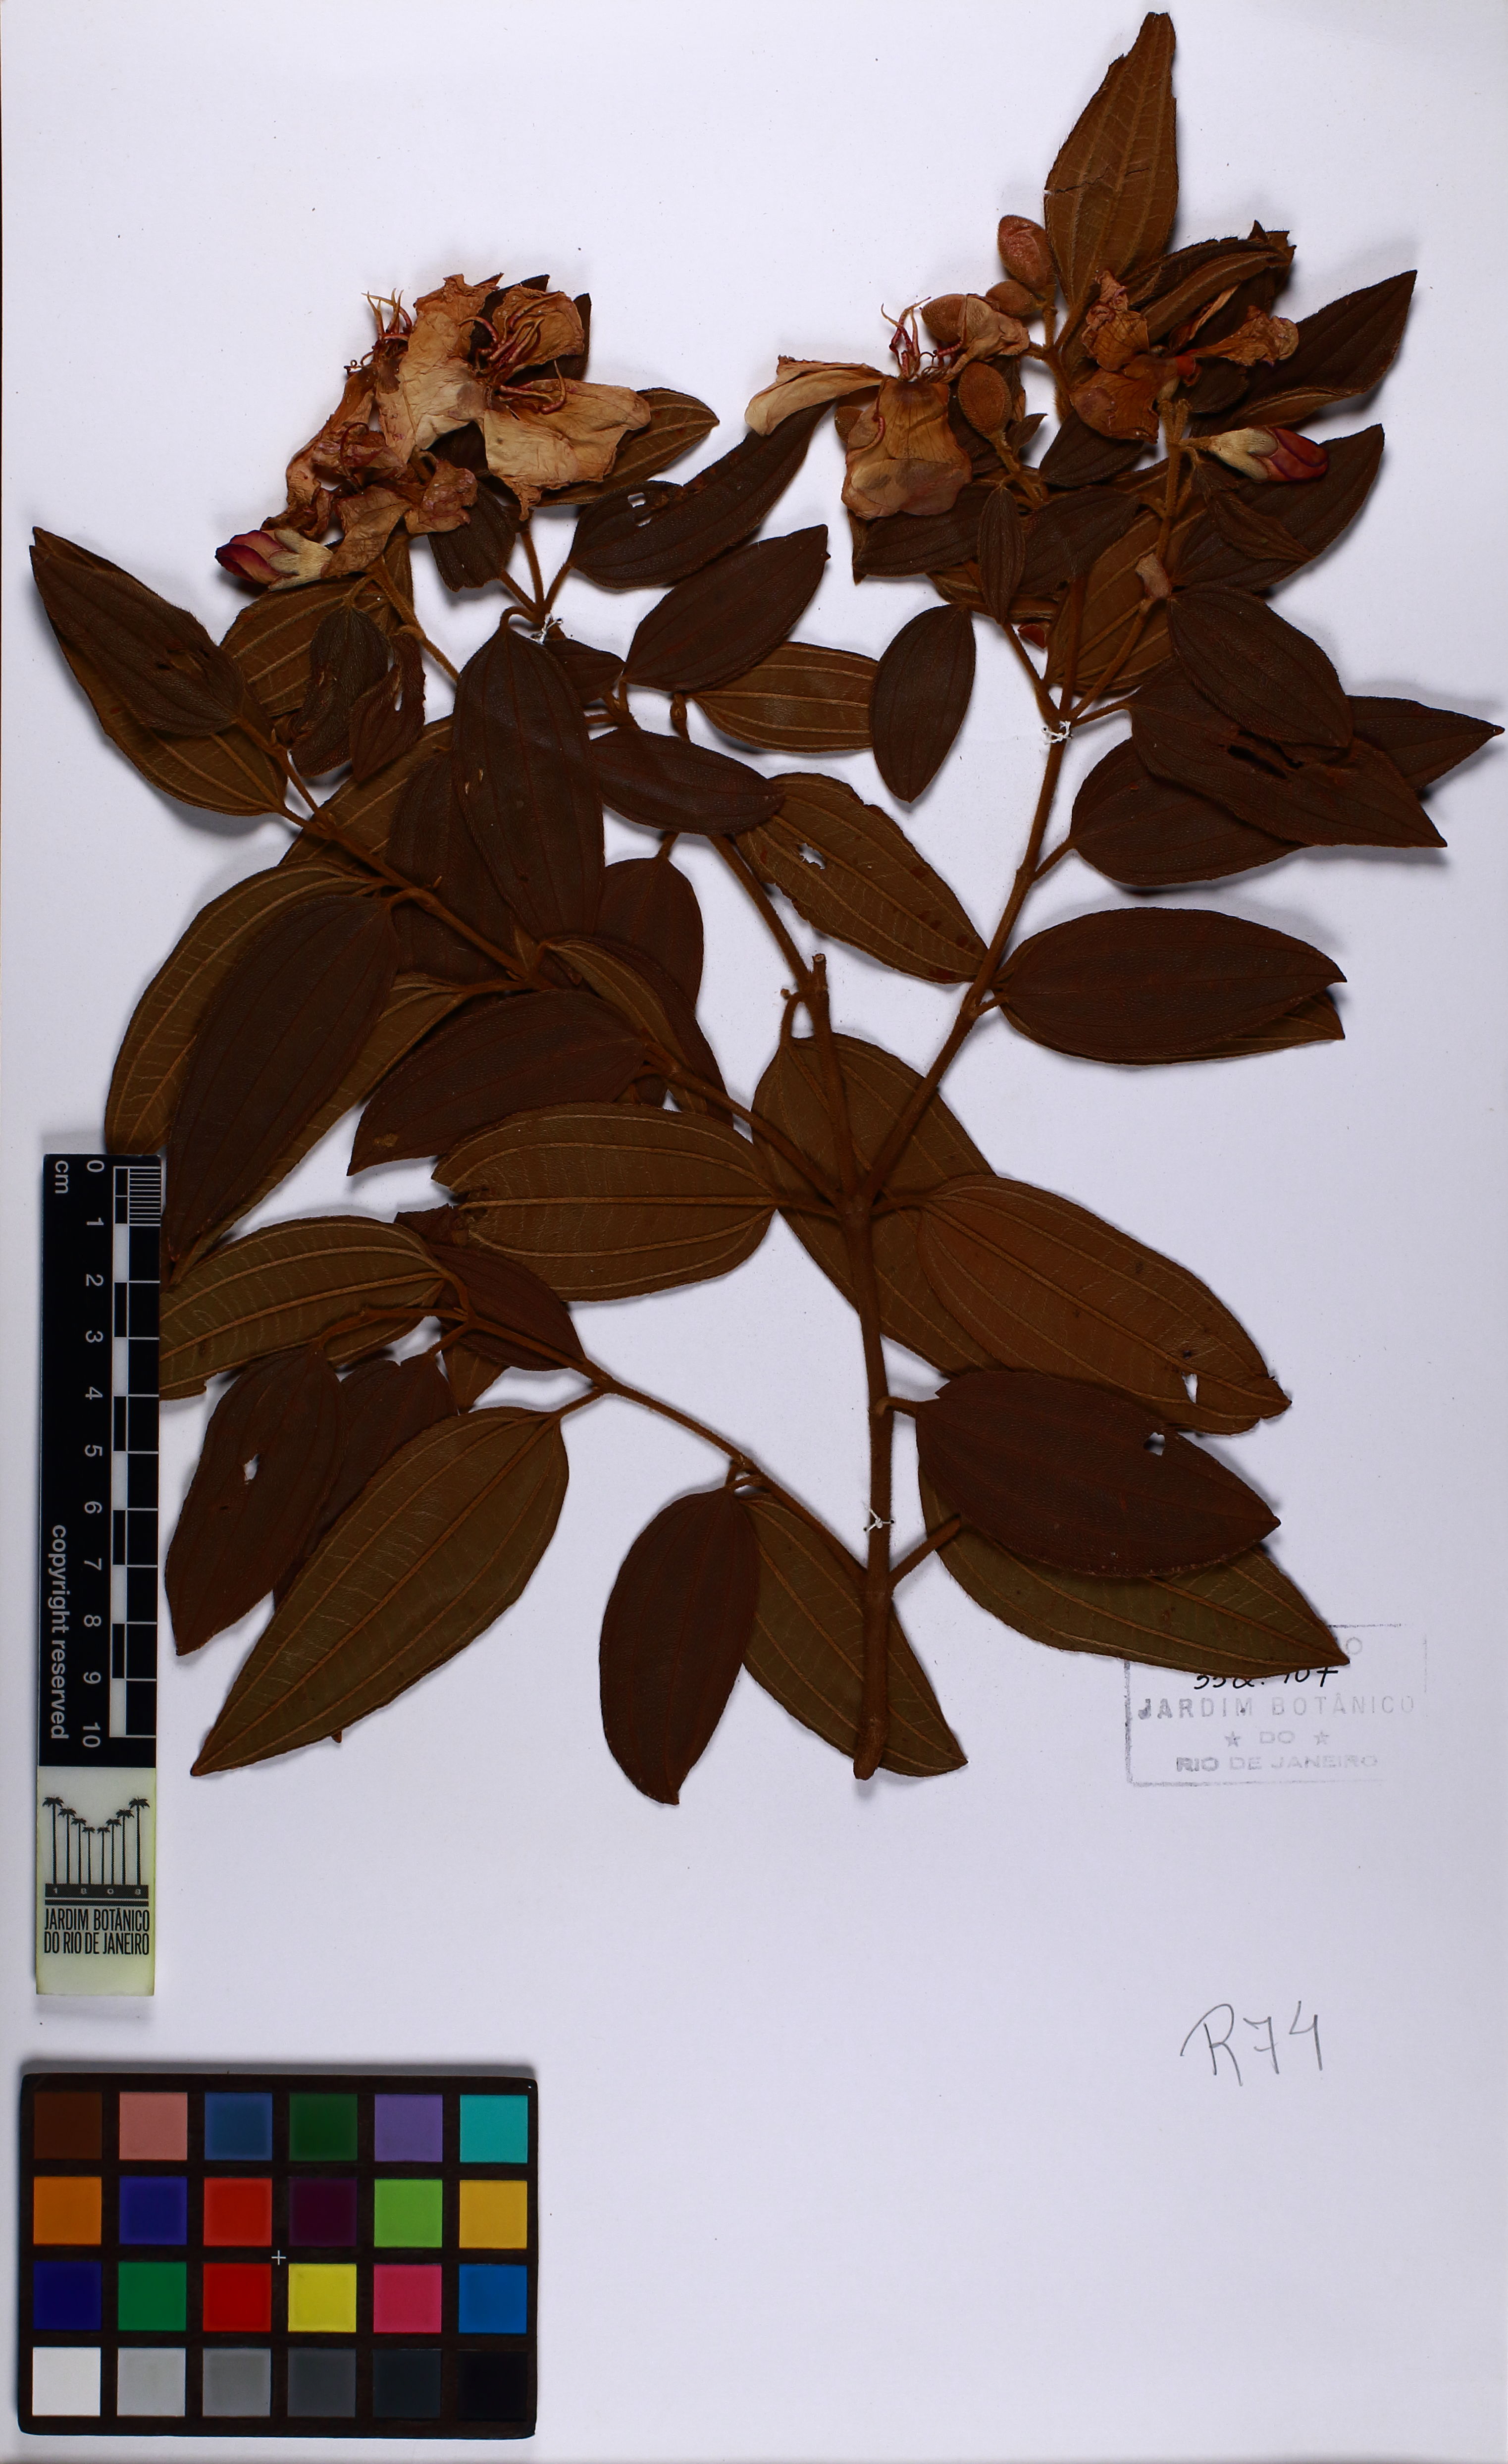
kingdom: Plantae
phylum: Tracheophyta
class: Magnoliopsida
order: Myrtales
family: Melastomataceae
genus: Pleroma
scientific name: Pleroma canescens
